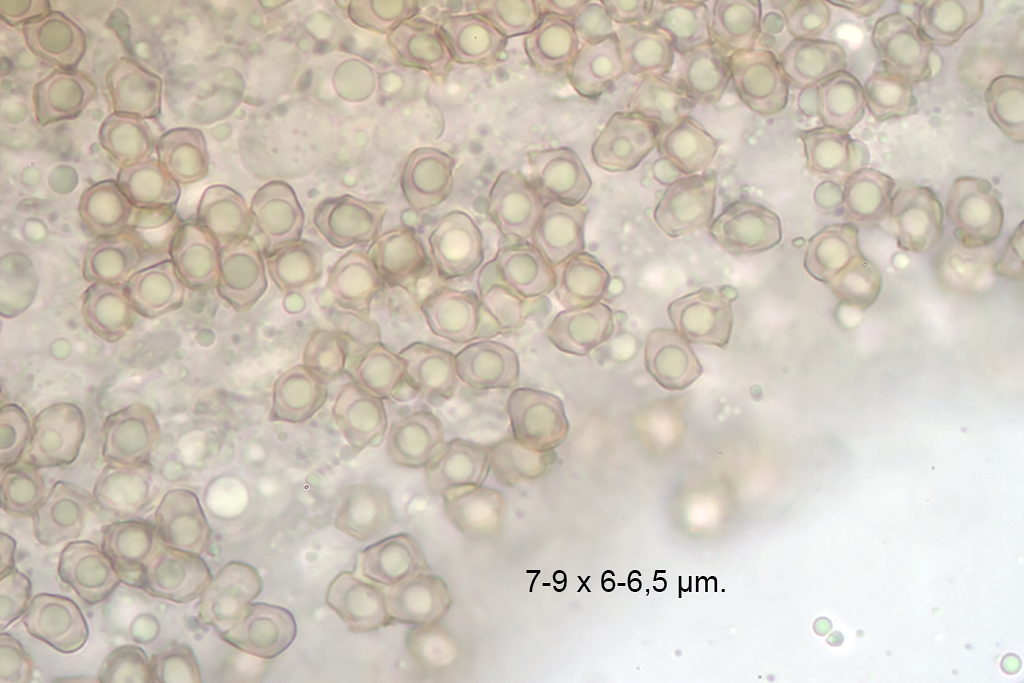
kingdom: Fungi
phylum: Basidiomycota
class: Agaricomycetes
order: Agaricales
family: Entolomataceae
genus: Entoloma
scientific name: Entoloma phaeodiscum
